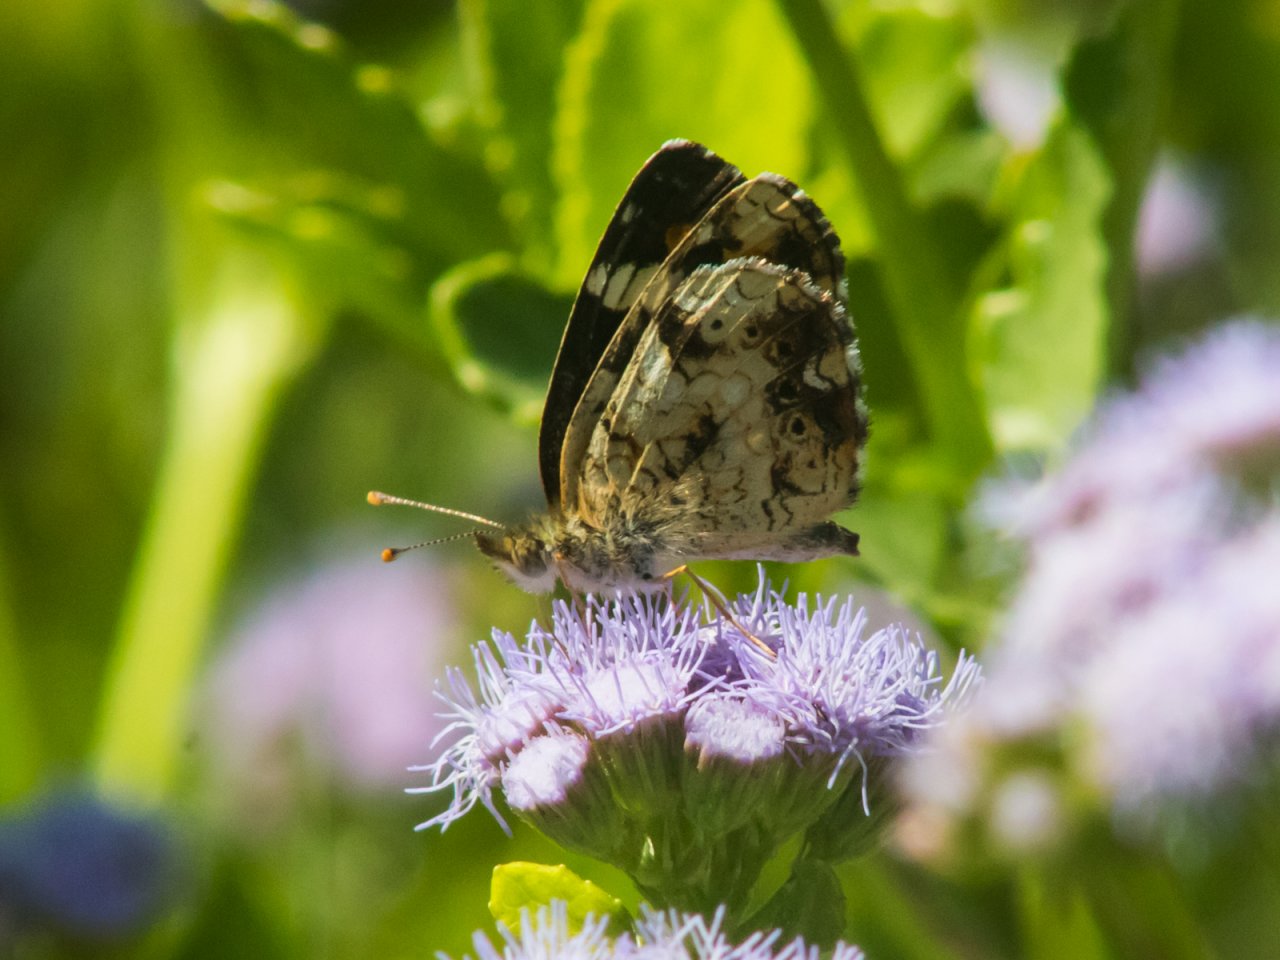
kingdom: Animalia
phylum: Arthropoda
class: Insecta
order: Lepidoptera
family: Nymphalidae
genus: Phyciodes
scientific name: Phyciodes phaon
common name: Phaon Crescent
